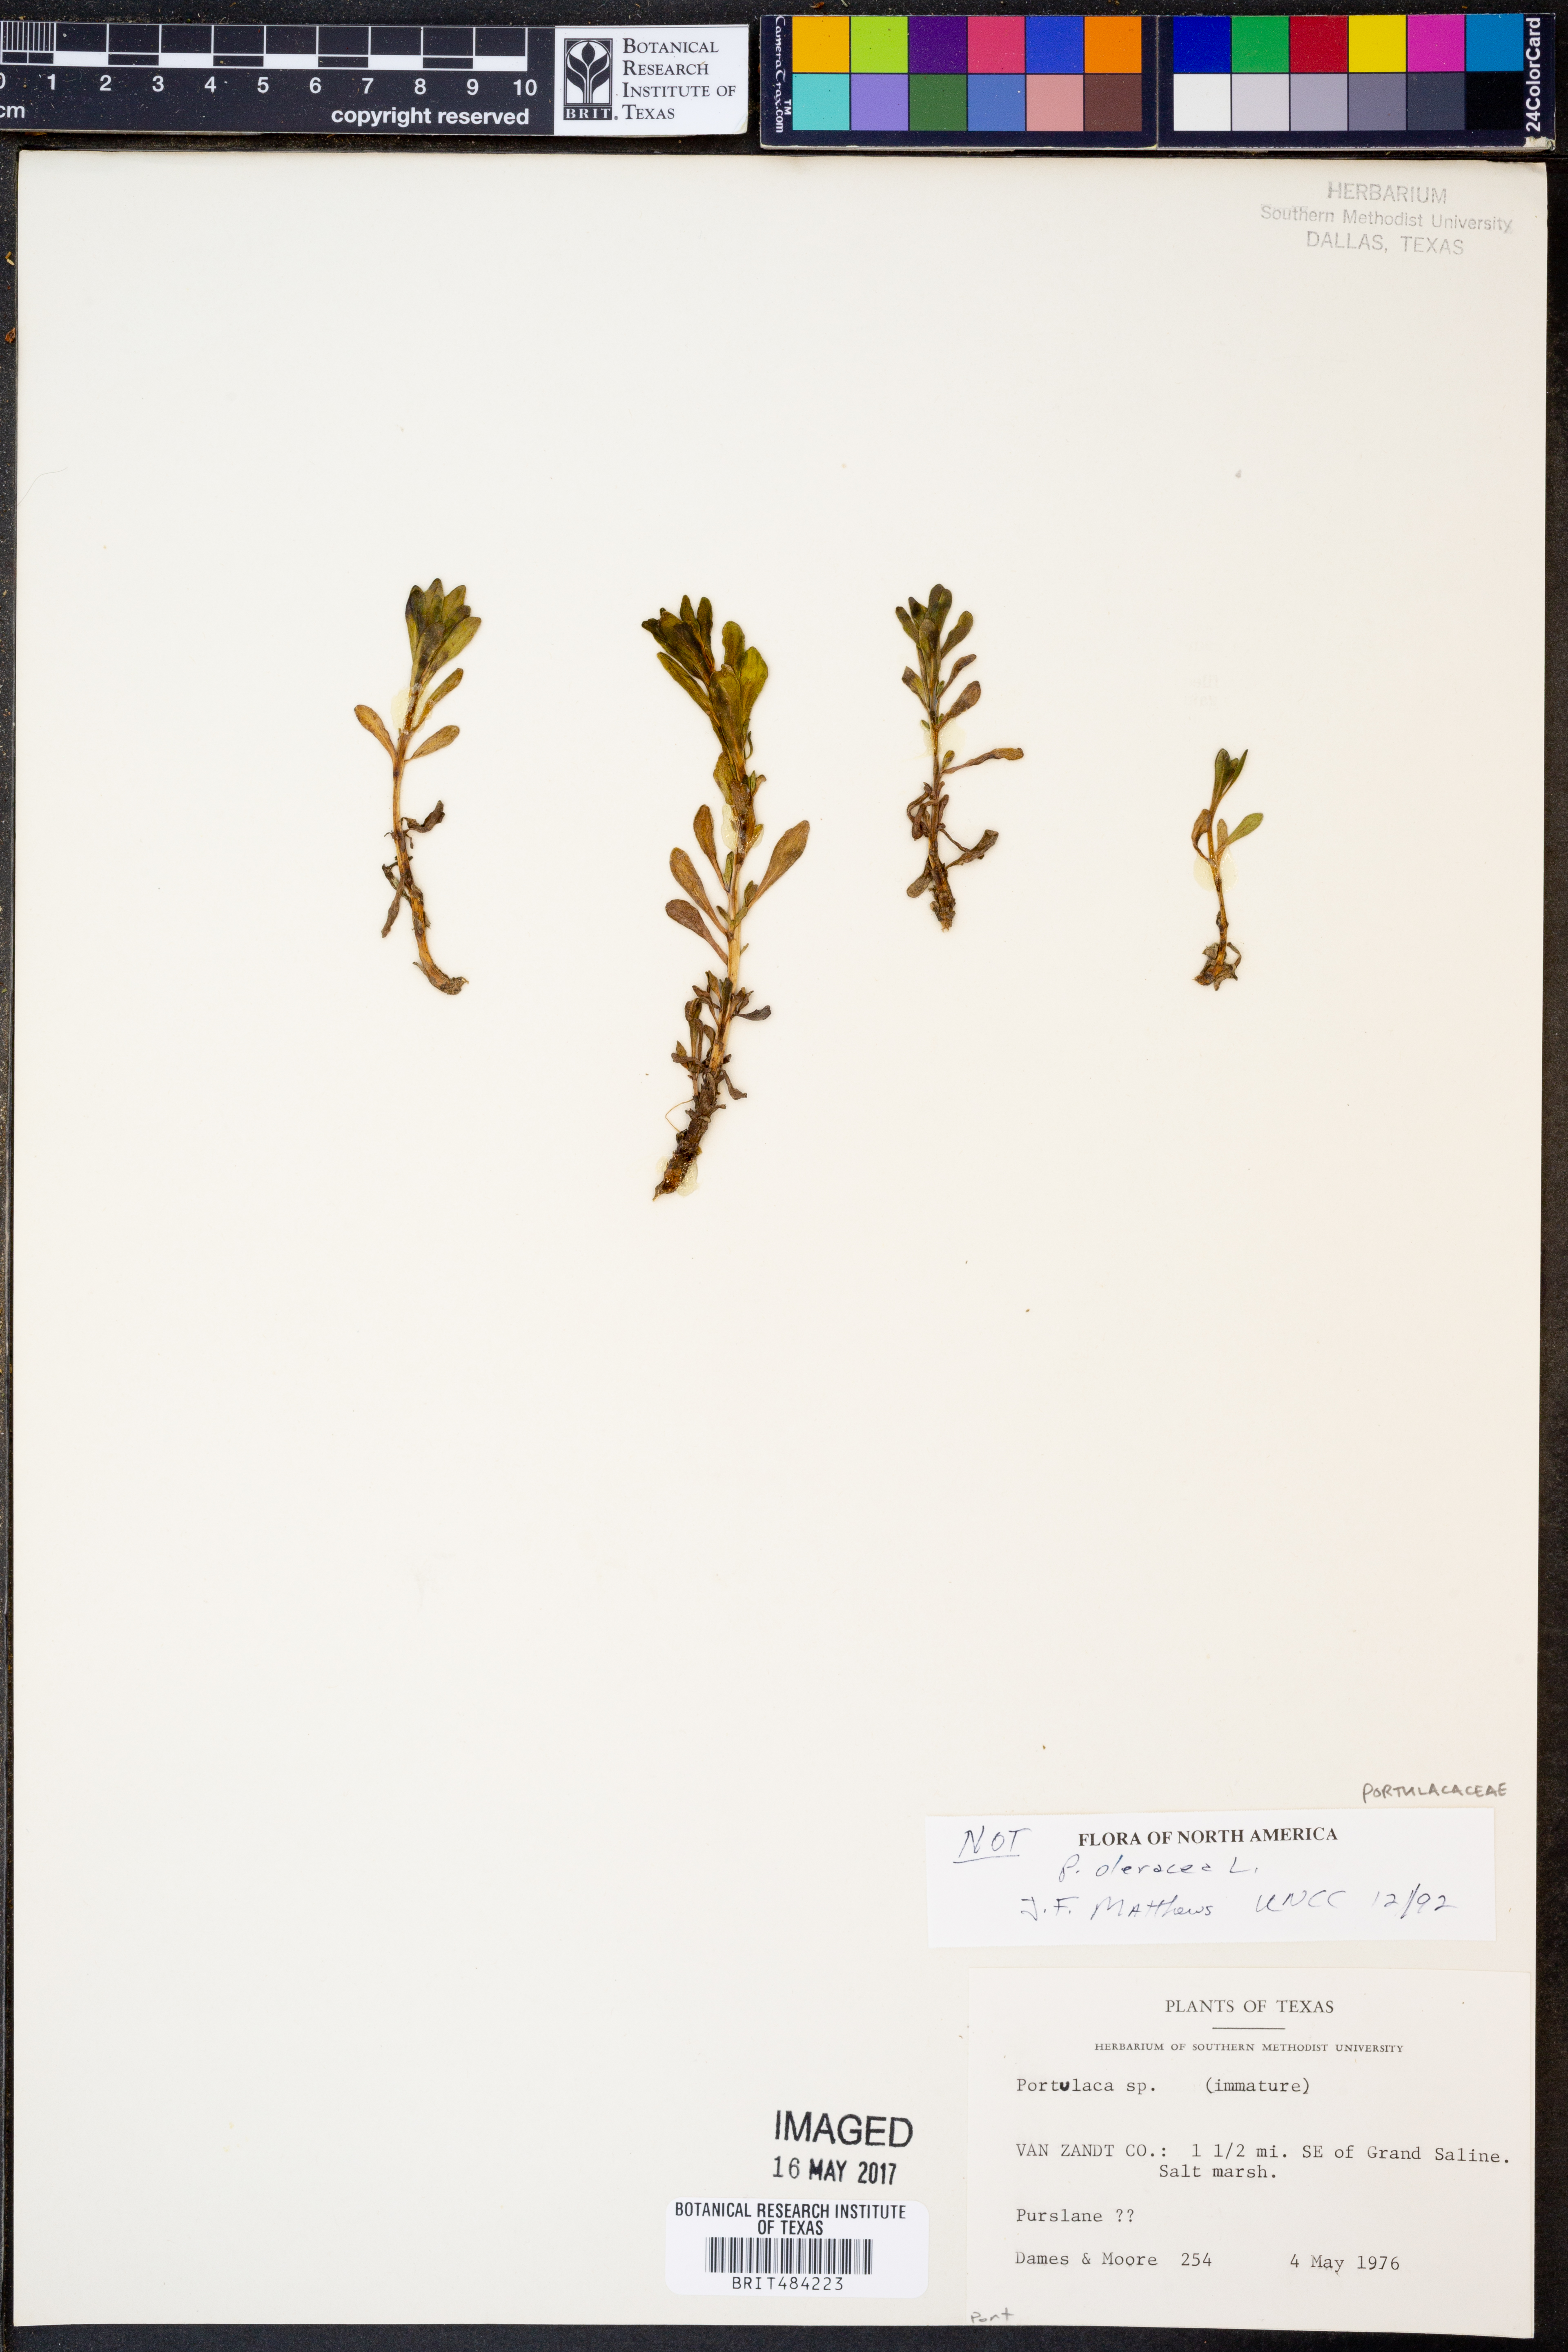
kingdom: Plantae
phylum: Tracheophyta
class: Magnoliopsida
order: Caryophyllales
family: Portulacaceae
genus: Portulaca
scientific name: Portulaca
